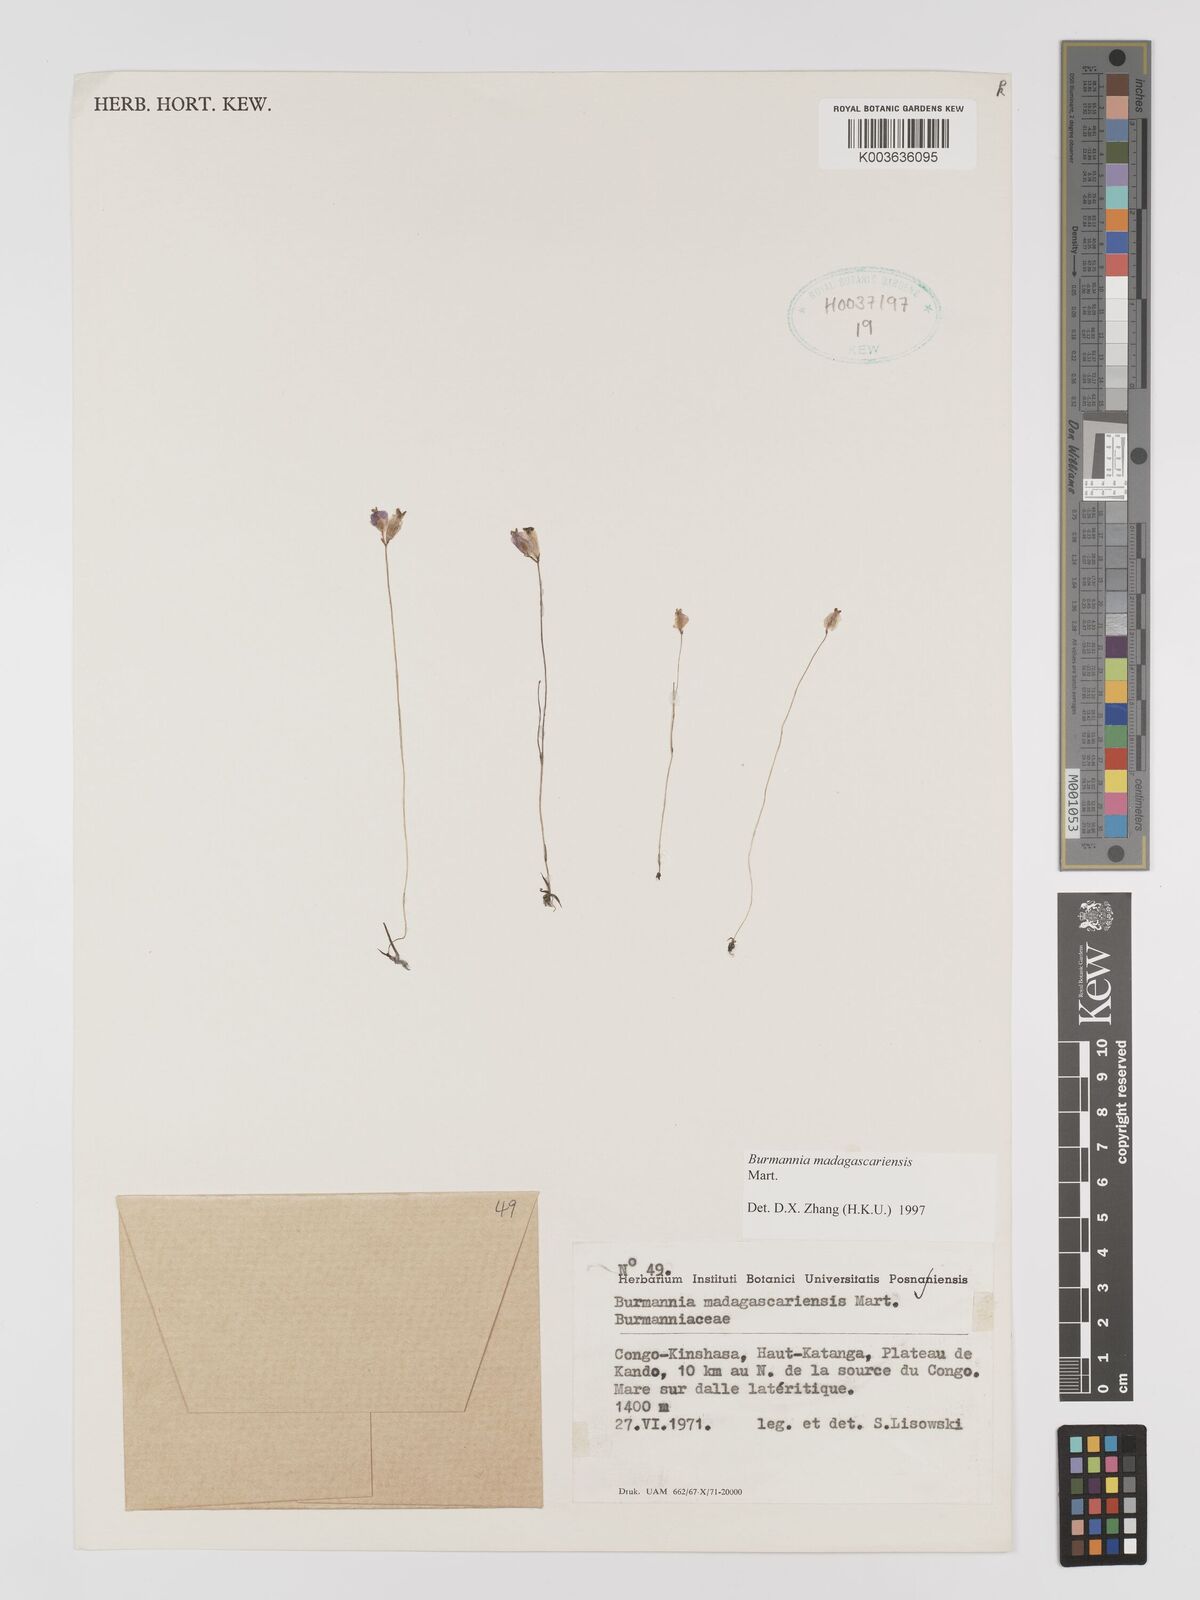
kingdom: Plantae
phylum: Tracheophyta
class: Liliopsida
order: Dioscoreales
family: Burmanniaceae
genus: Burmannia
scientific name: Burmannia madagascariensis
